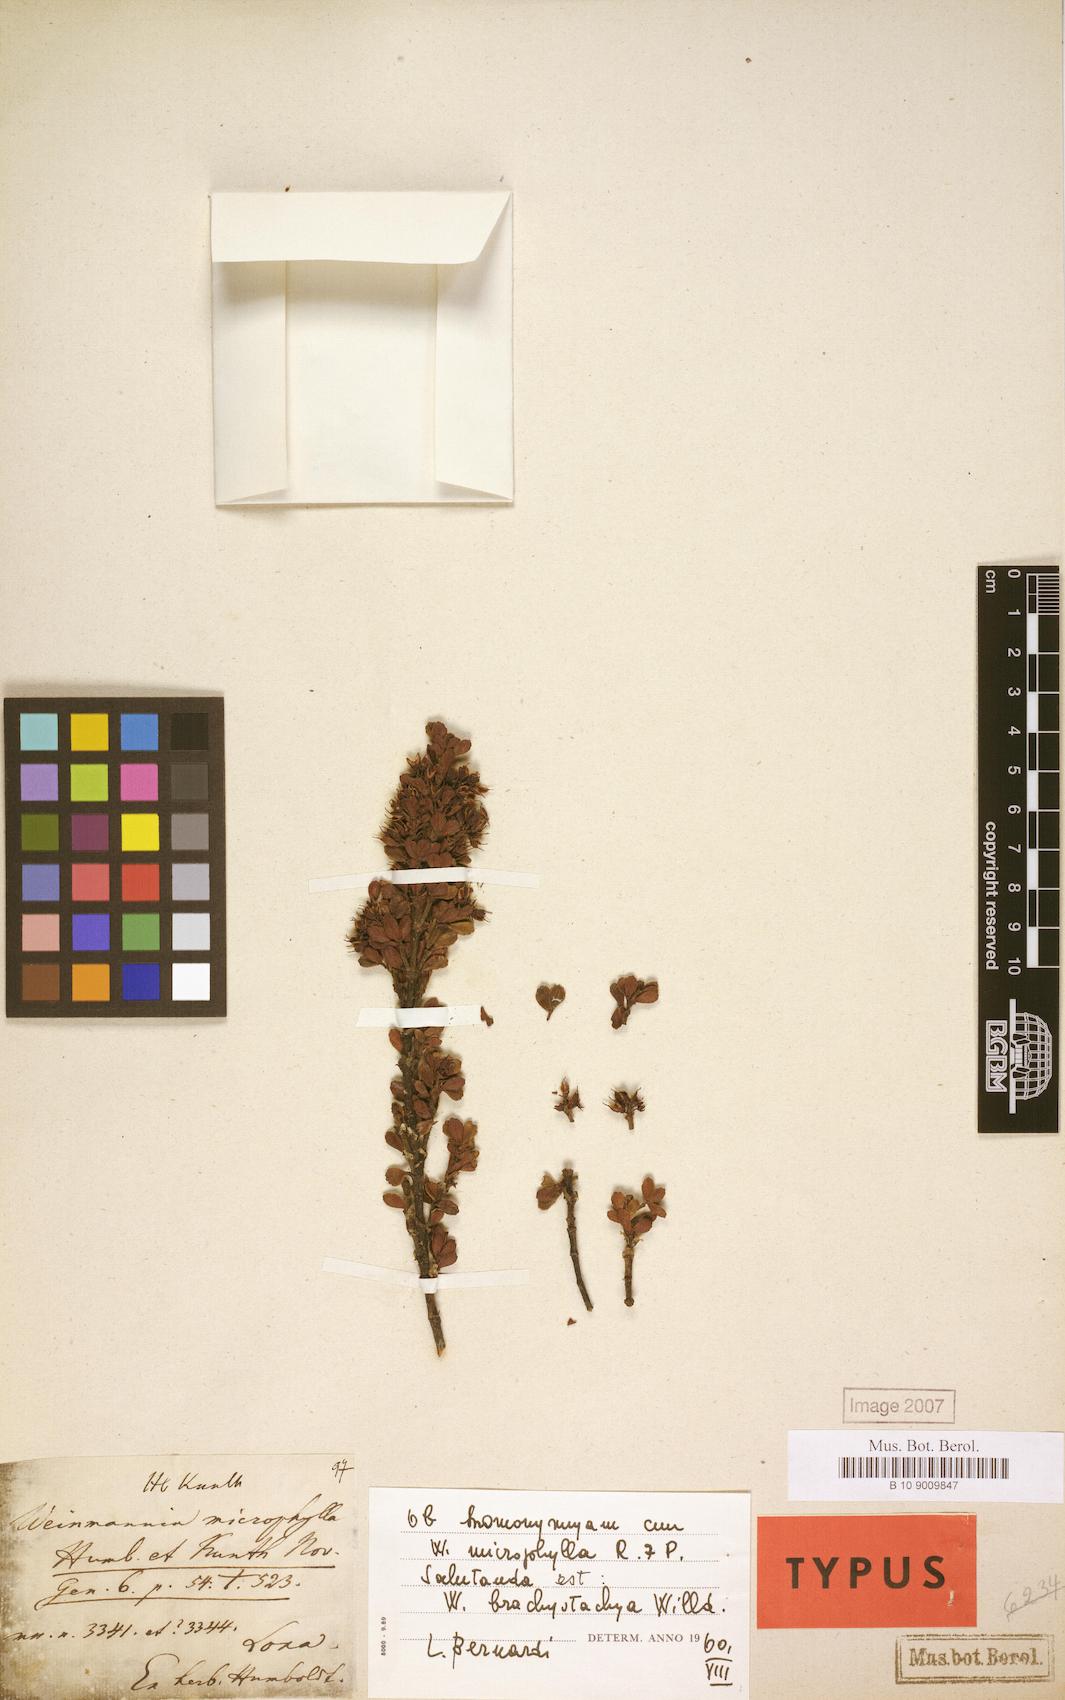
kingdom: Plantae
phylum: Tracheophyta
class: Magnoliopsida
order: Oxalidales
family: Cunoniaceae
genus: Weinmannia
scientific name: Weinmannia cochensis
